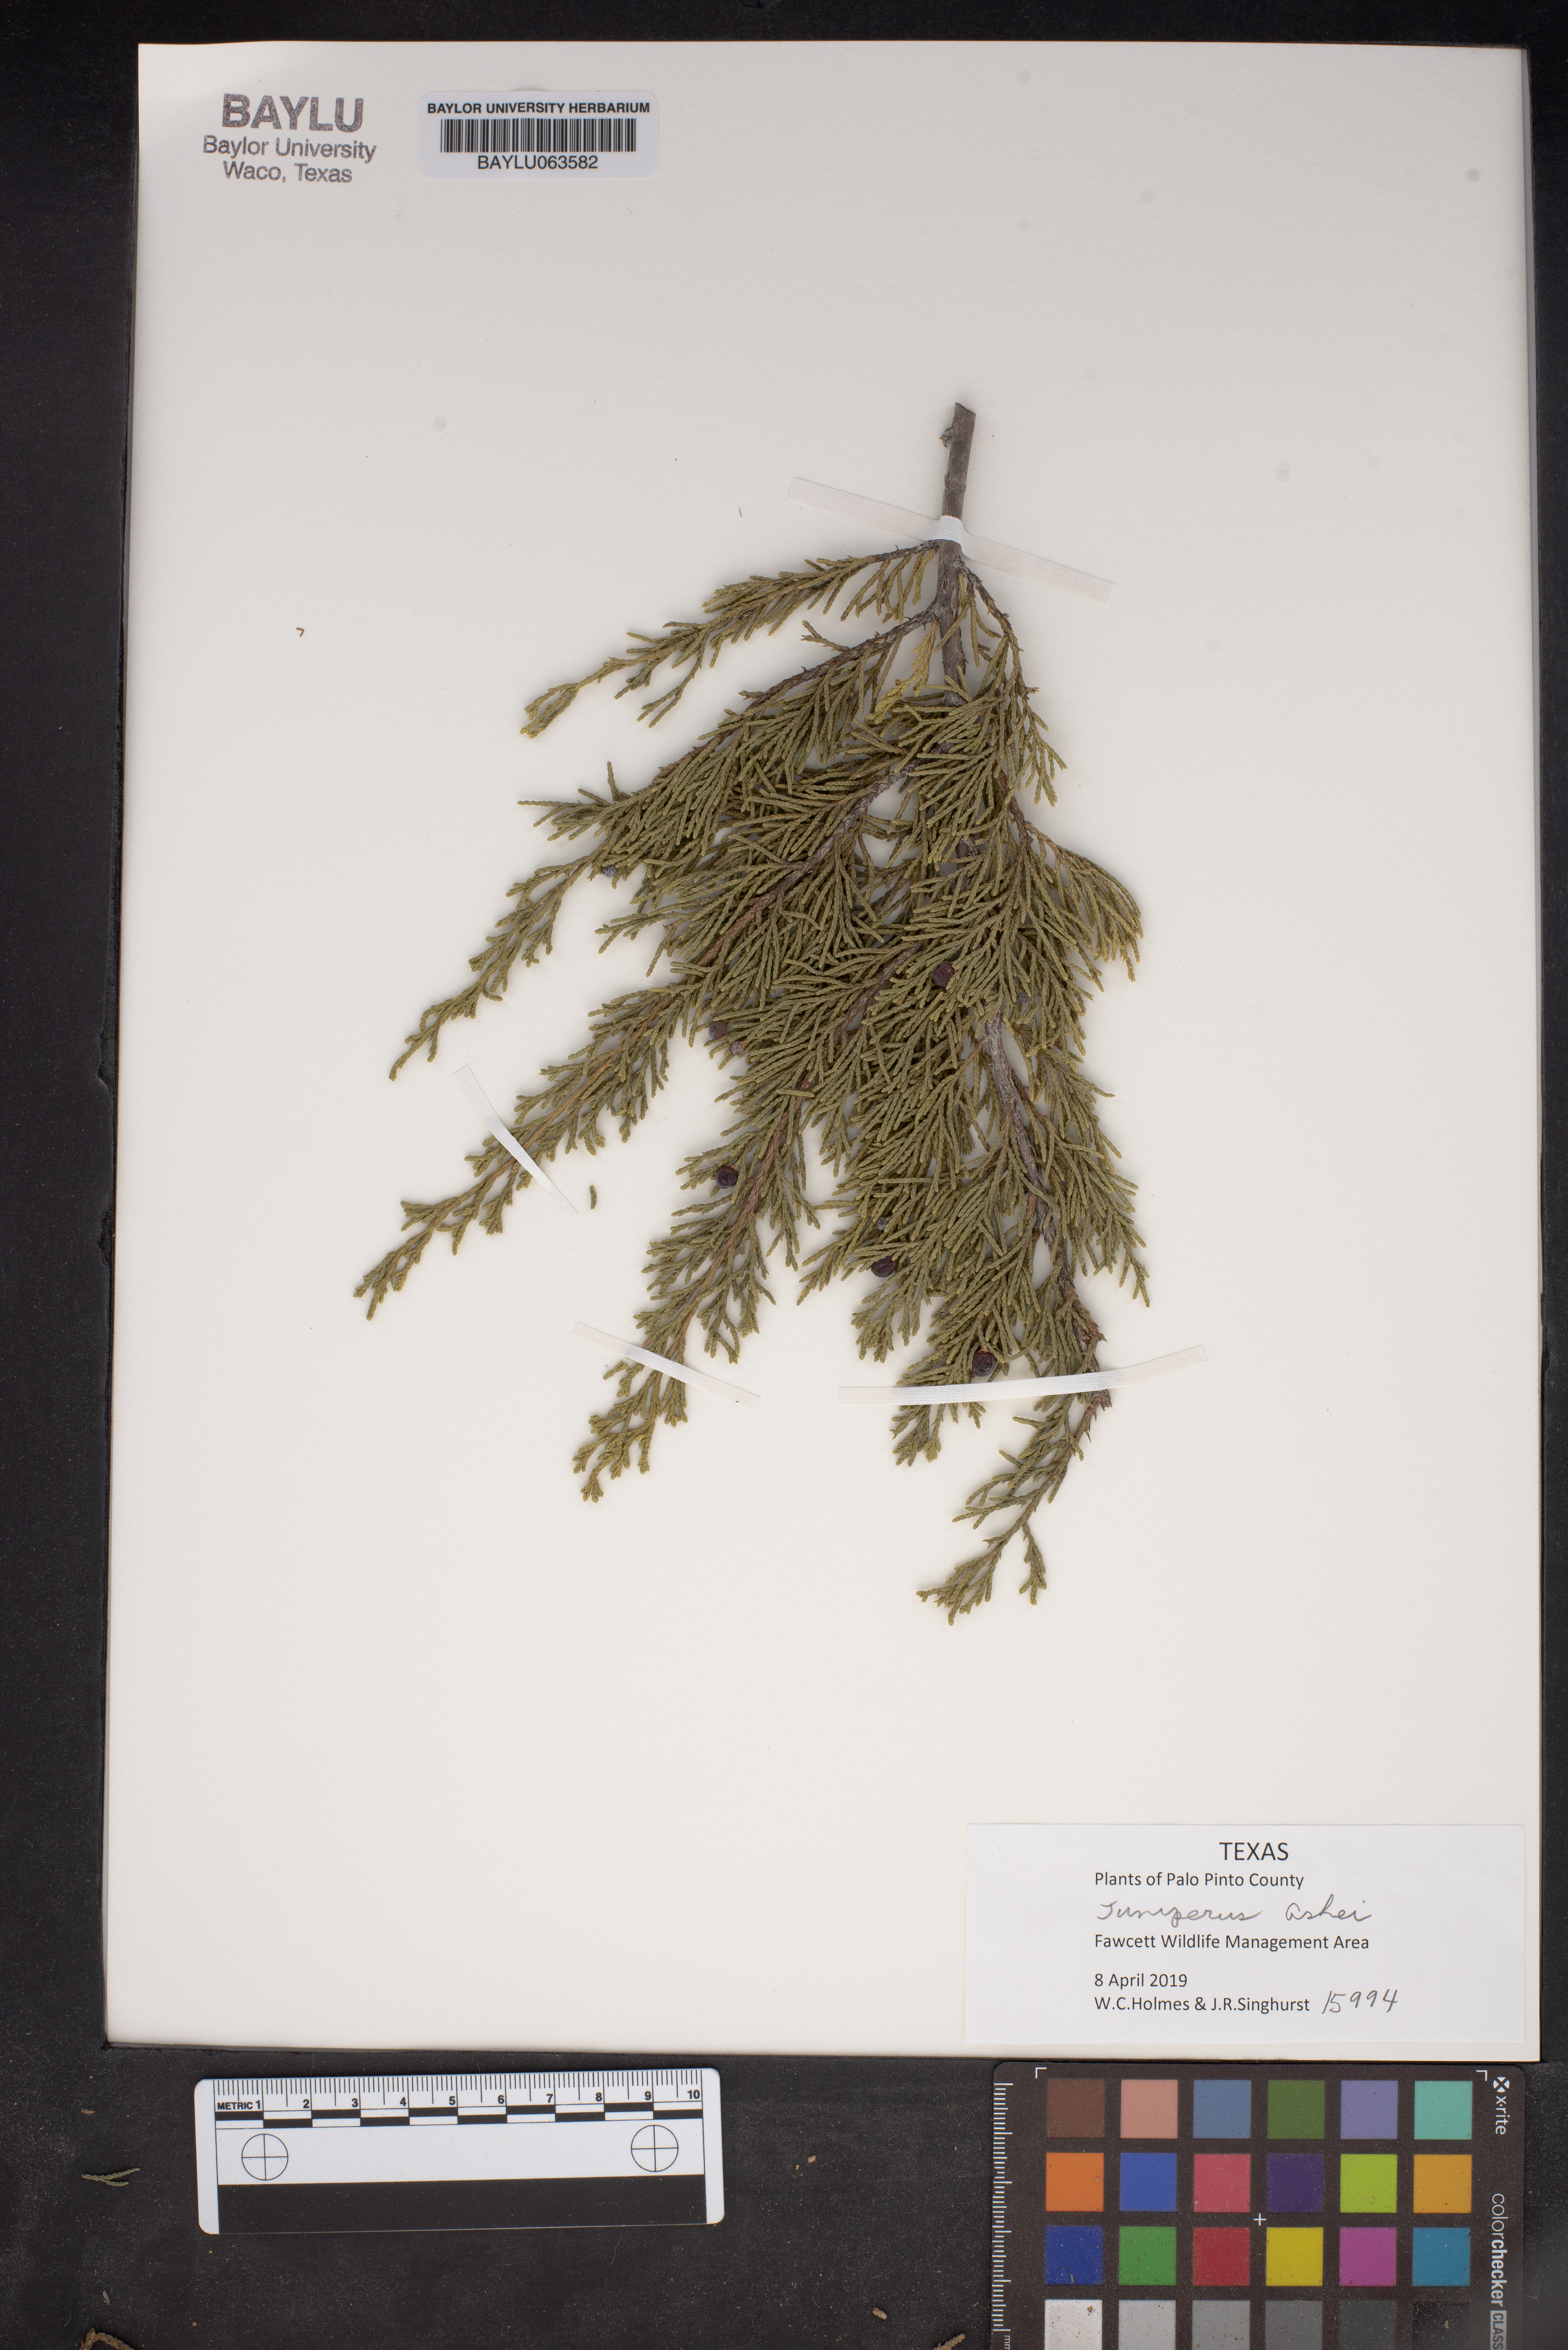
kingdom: Plantae
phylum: Tracheophyta
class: Pinopsida
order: Pinales
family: Cupressaceae
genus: Juniperus
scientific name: Juniperus ashei
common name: Mexican juniper
